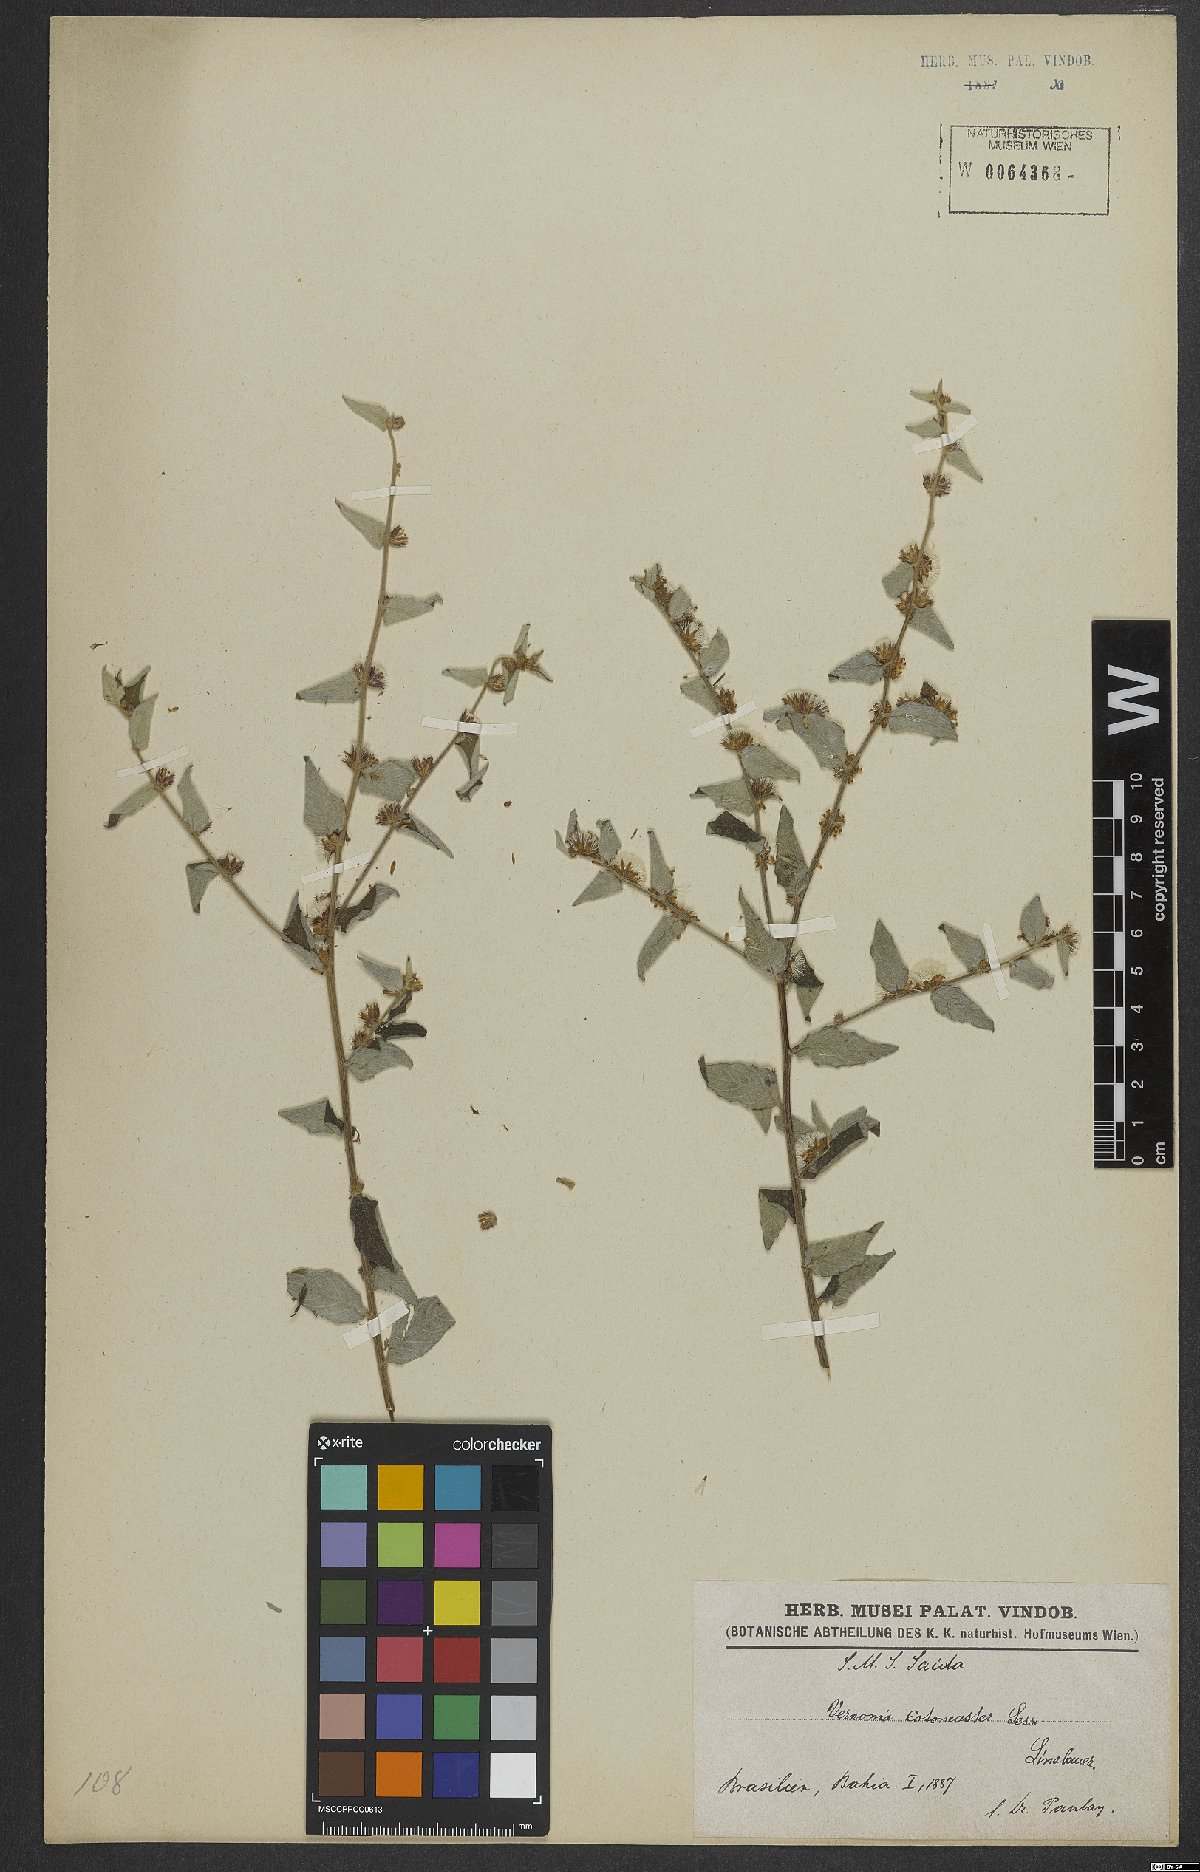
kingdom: Plantae
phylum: Tracheophyta
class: Magnoliopsida
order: Asterales
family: Asteraceae
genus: Lepidaploa
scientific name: Lepidaploa cotoneaster
